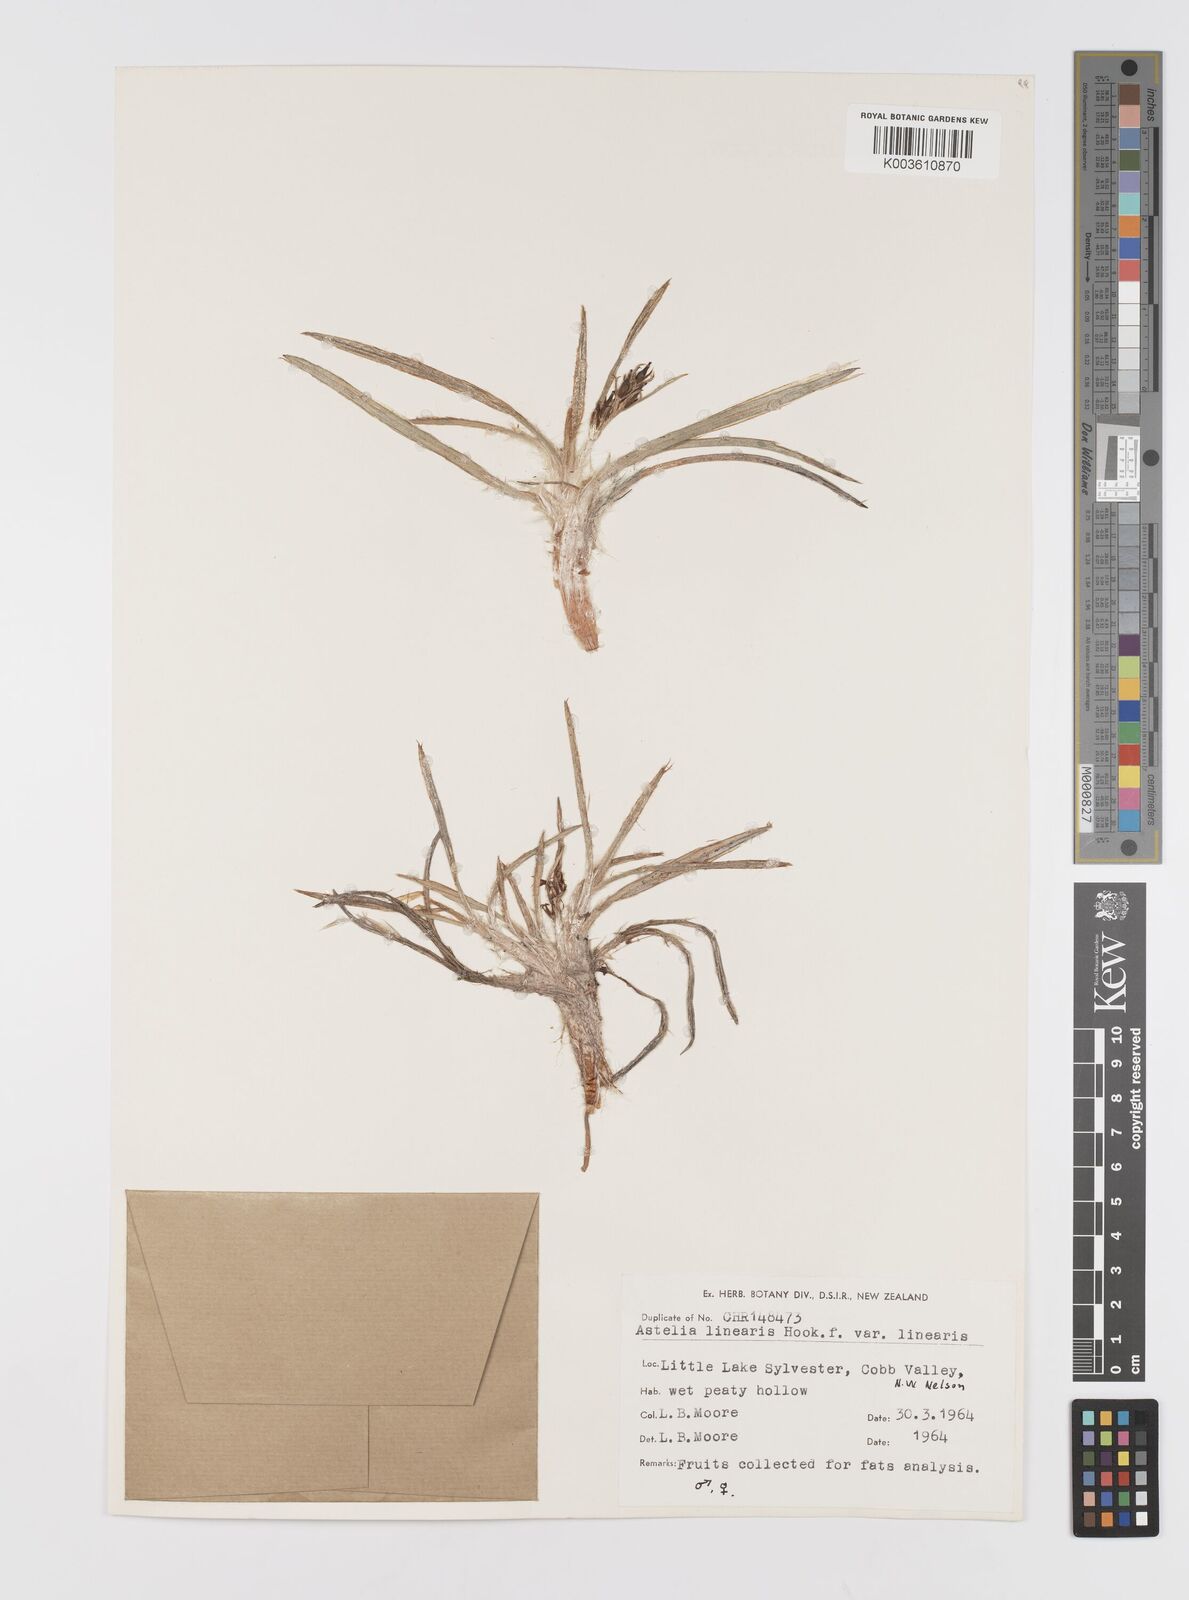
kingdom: Plantae
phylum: Tracheophyta
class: Liliopsida
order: Asparagales
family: Asteliaceae
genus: Astelia
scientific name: Astelia linearis
